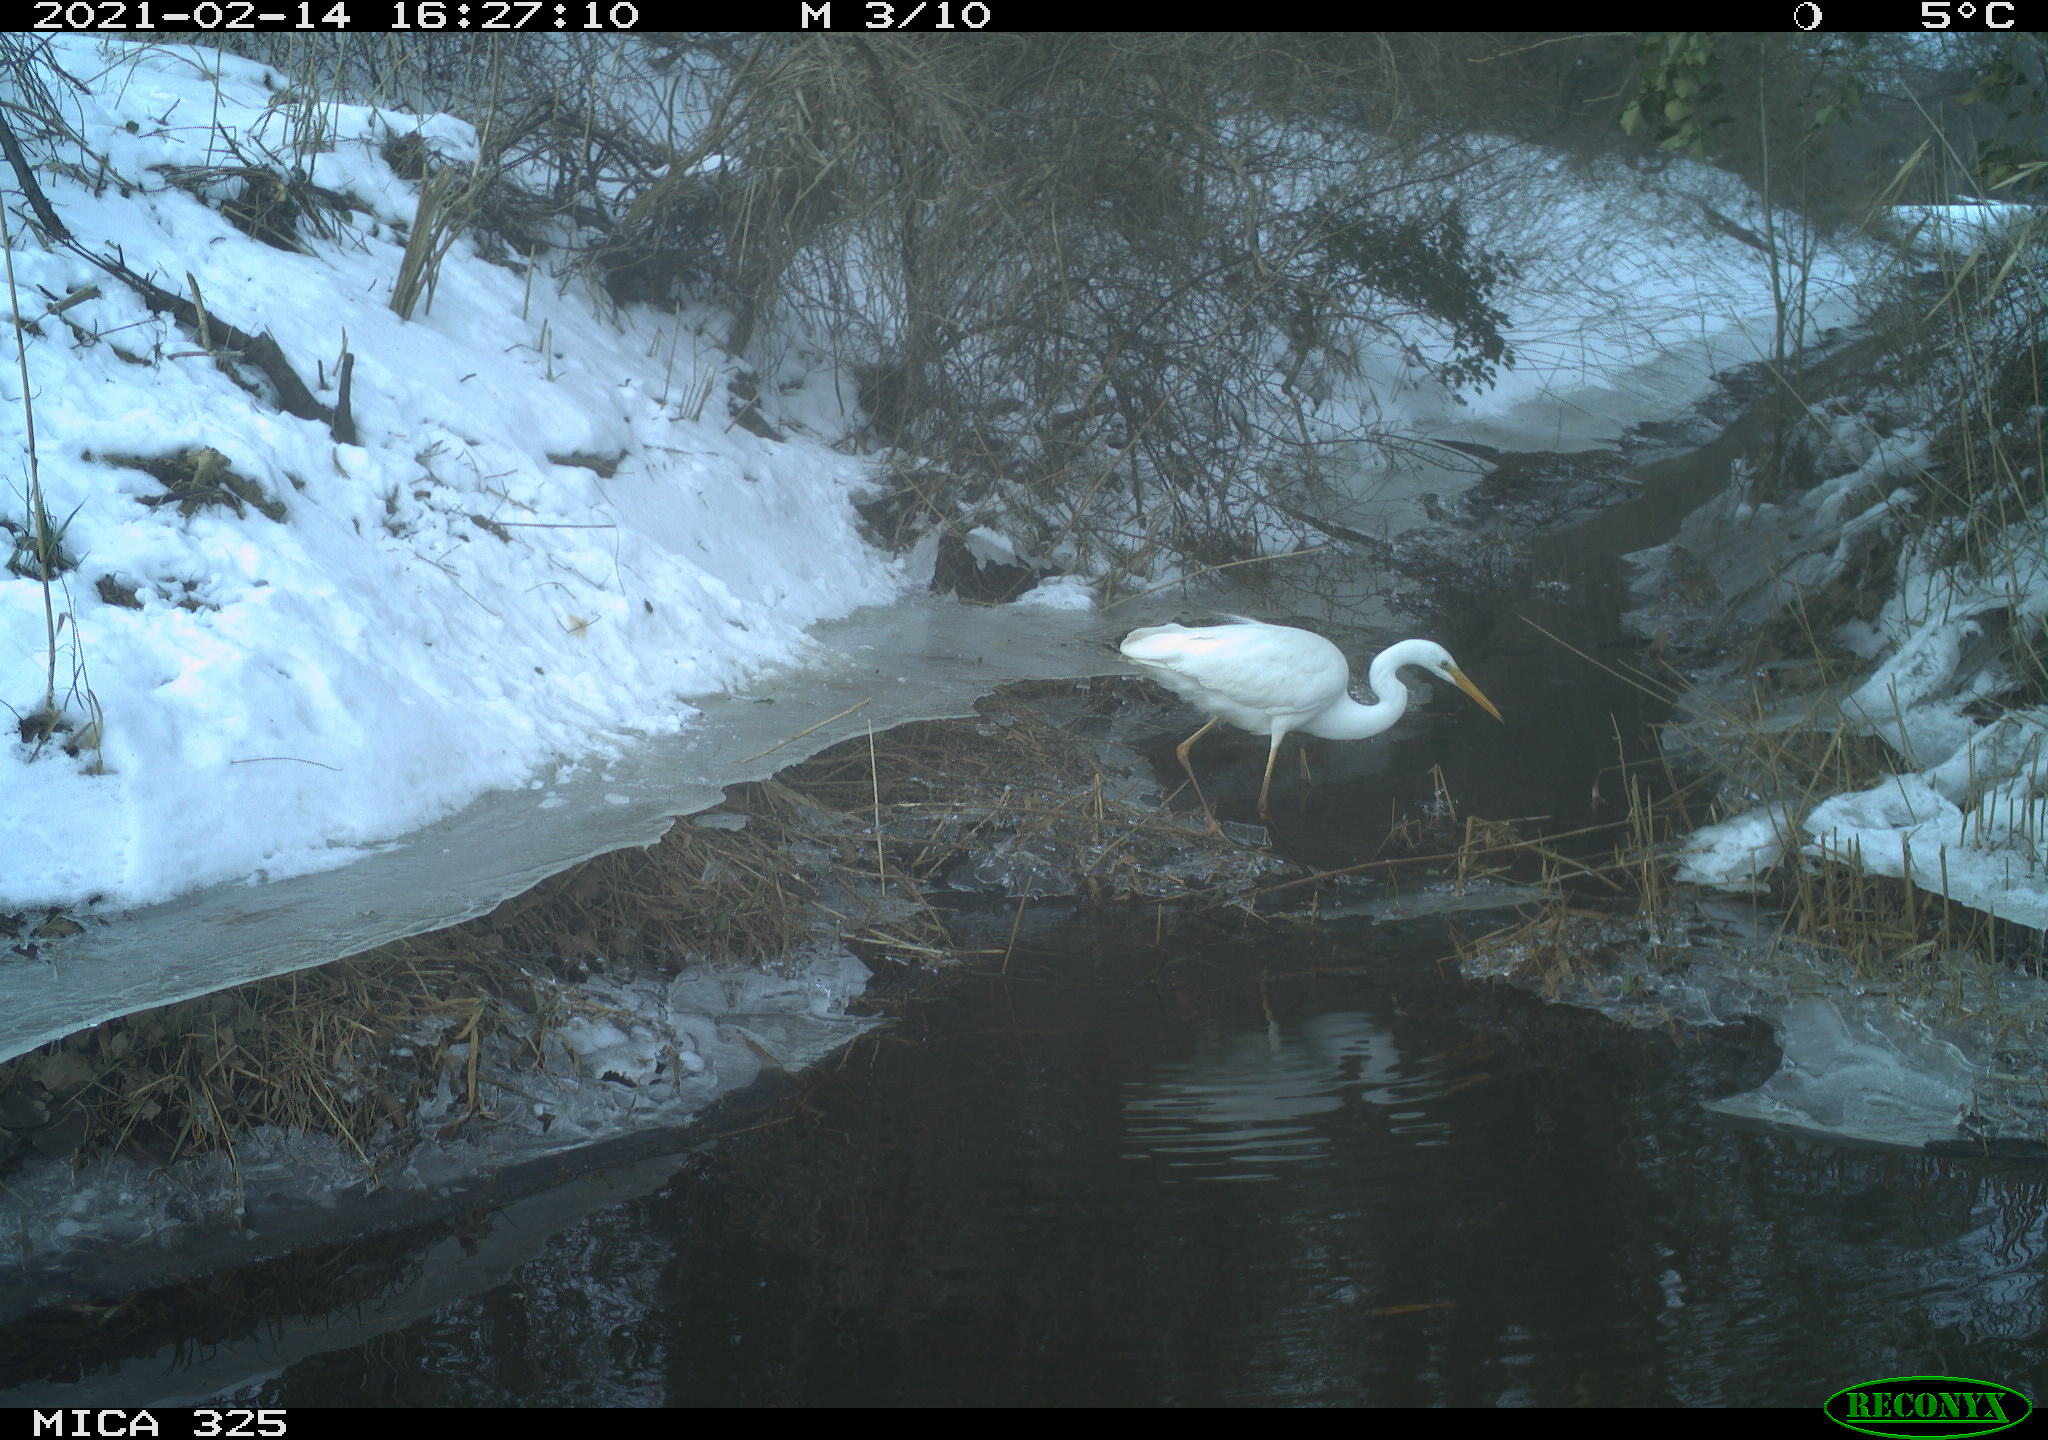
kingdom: Animalia
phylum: Chordata
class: Aves
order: Pelecaniformes
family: Ardeidae
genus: Ardea
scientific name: Ardea alba
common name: Great egret
